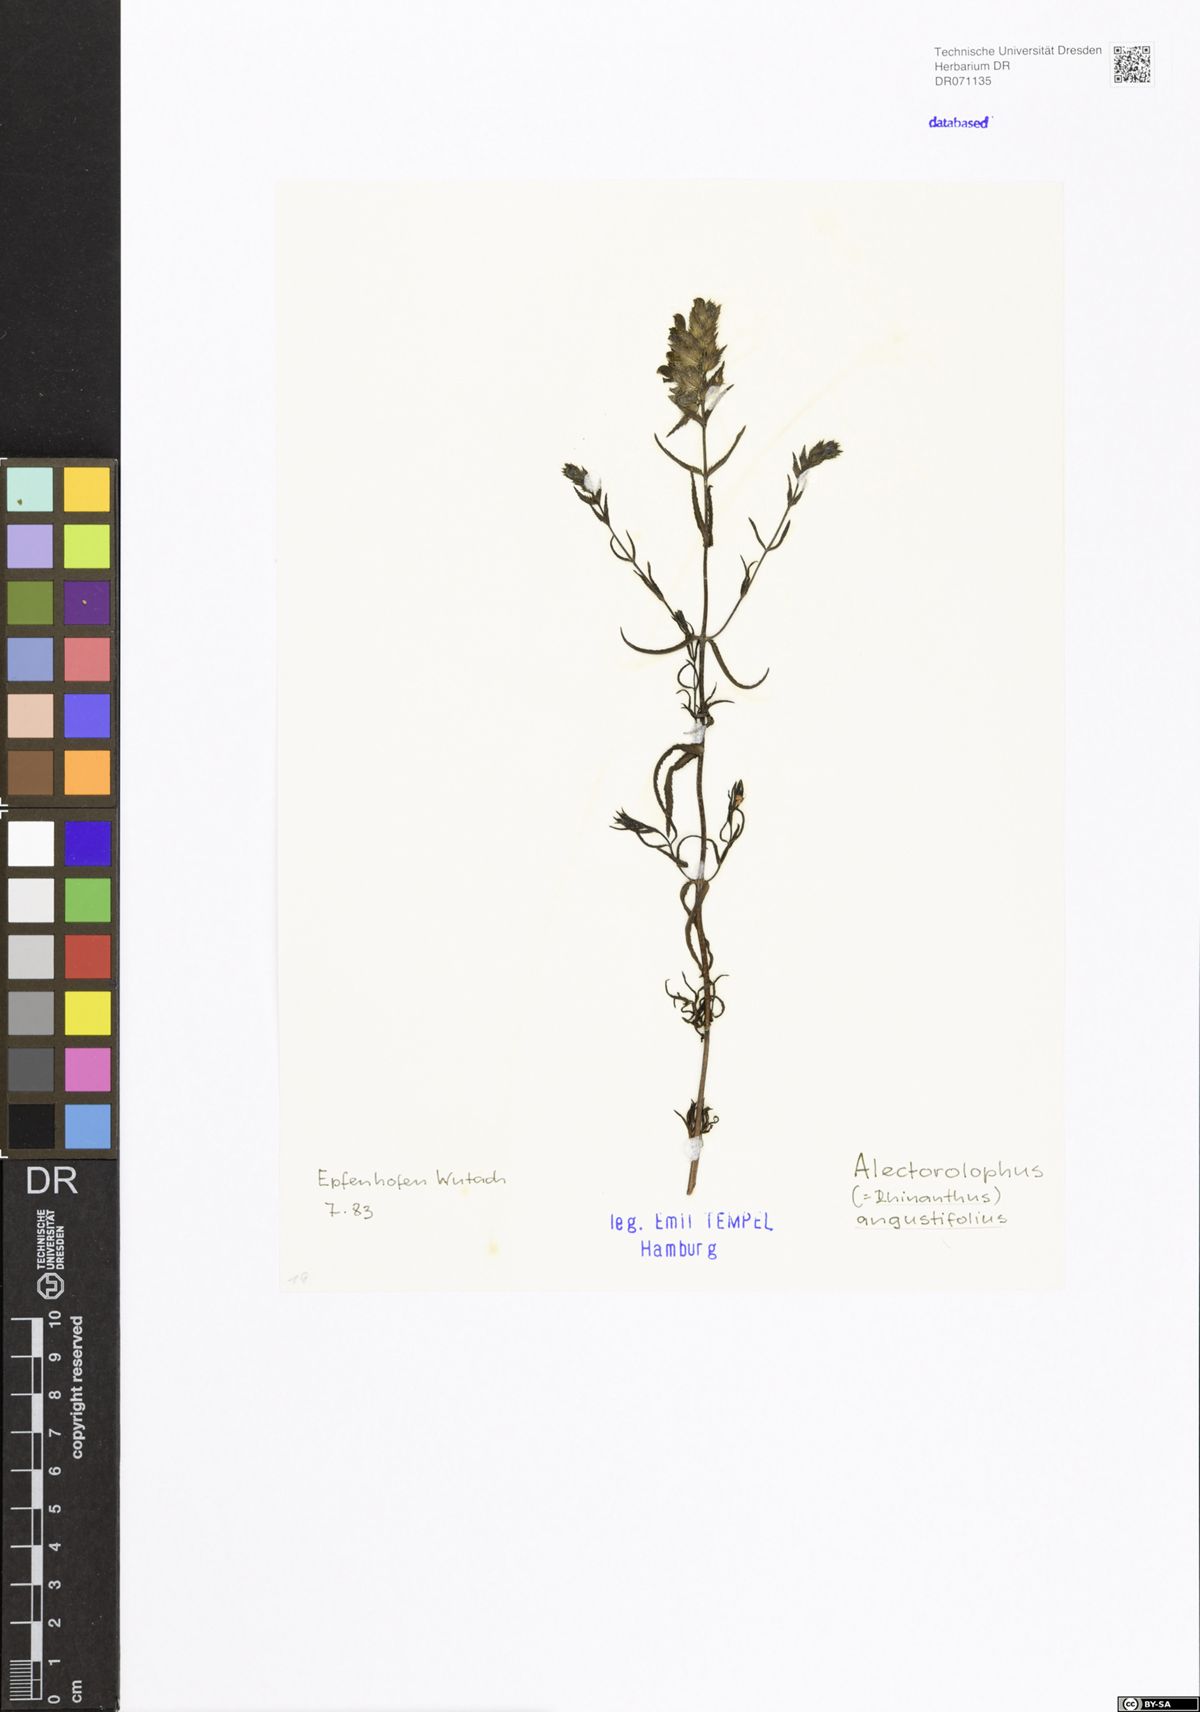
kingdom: Plantae
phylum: Tracheophyta
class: Magnoliopsida
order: Lamiales
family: Orobanchaceae
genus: Rhinanthus
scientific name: Rhinanthus
